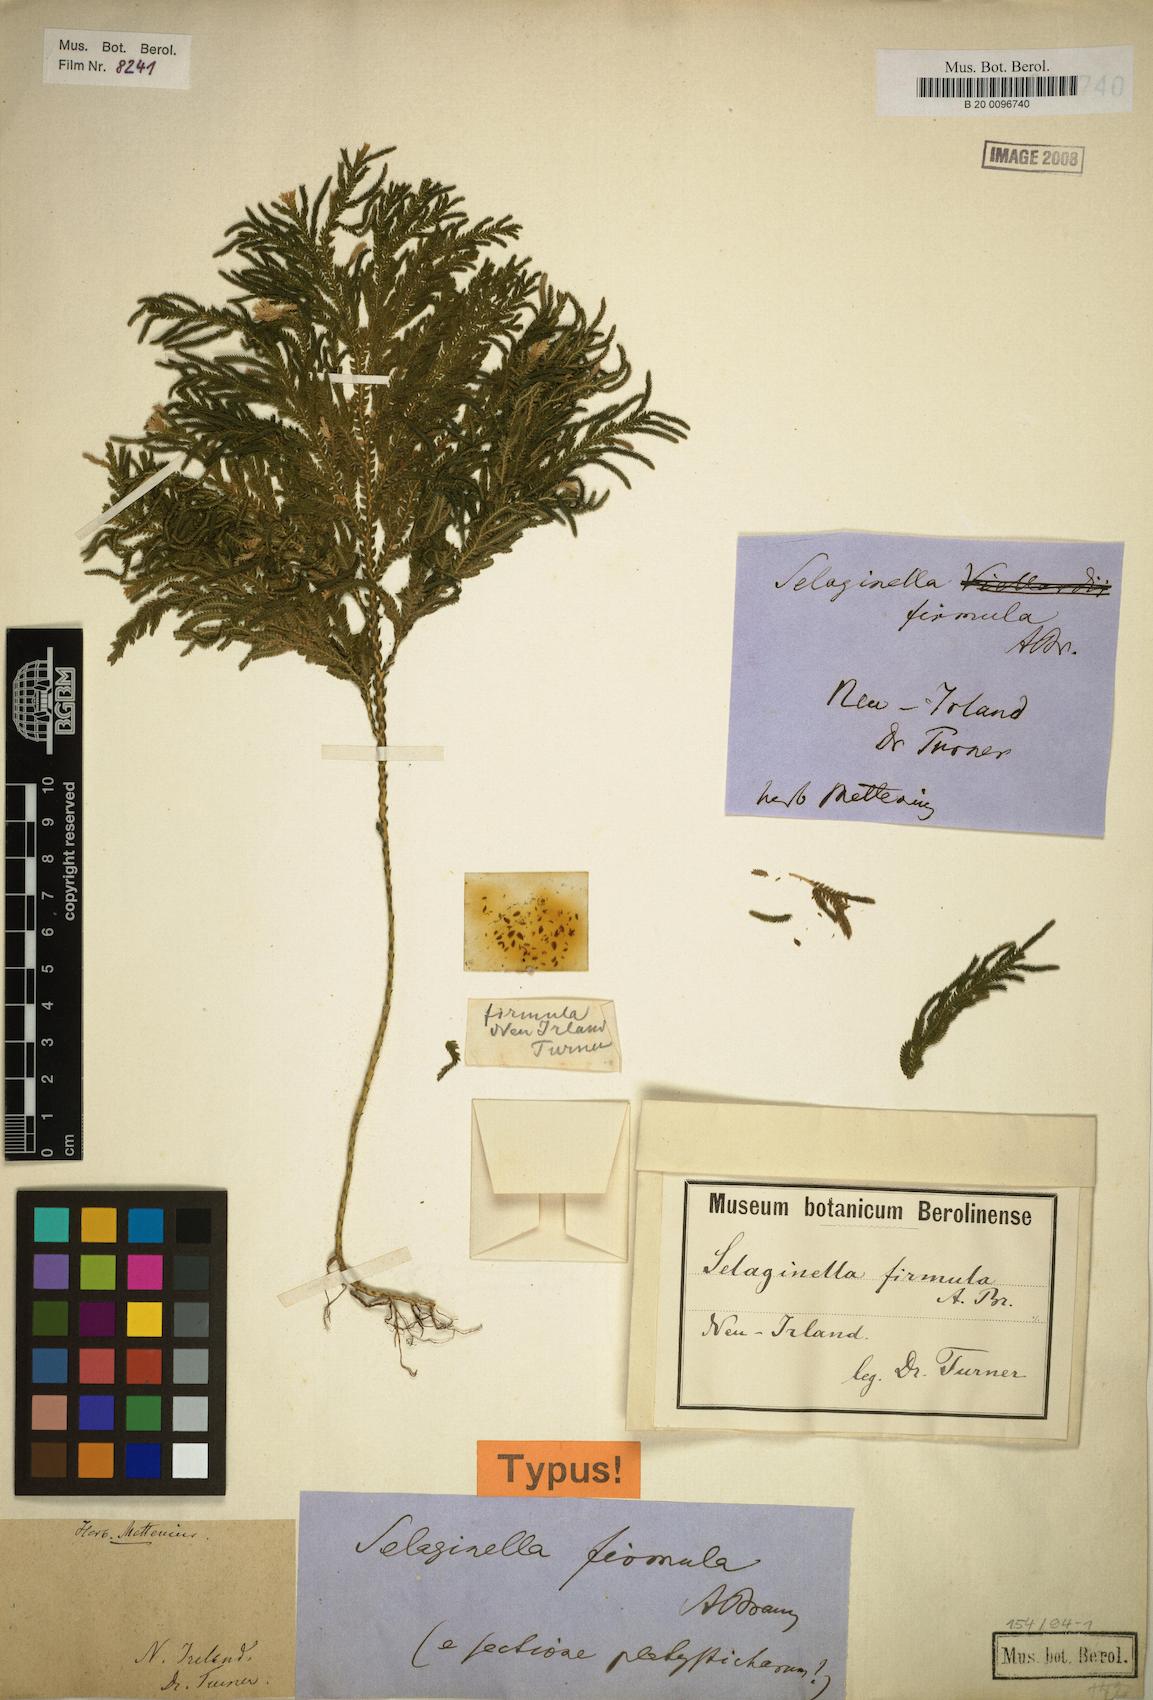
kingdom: Plantae
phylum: Tracheophyta
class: Lycopodiopsida
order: Selaginellales
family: Selaginellaceae
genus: Selaginella
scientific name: Selaginella firmula
